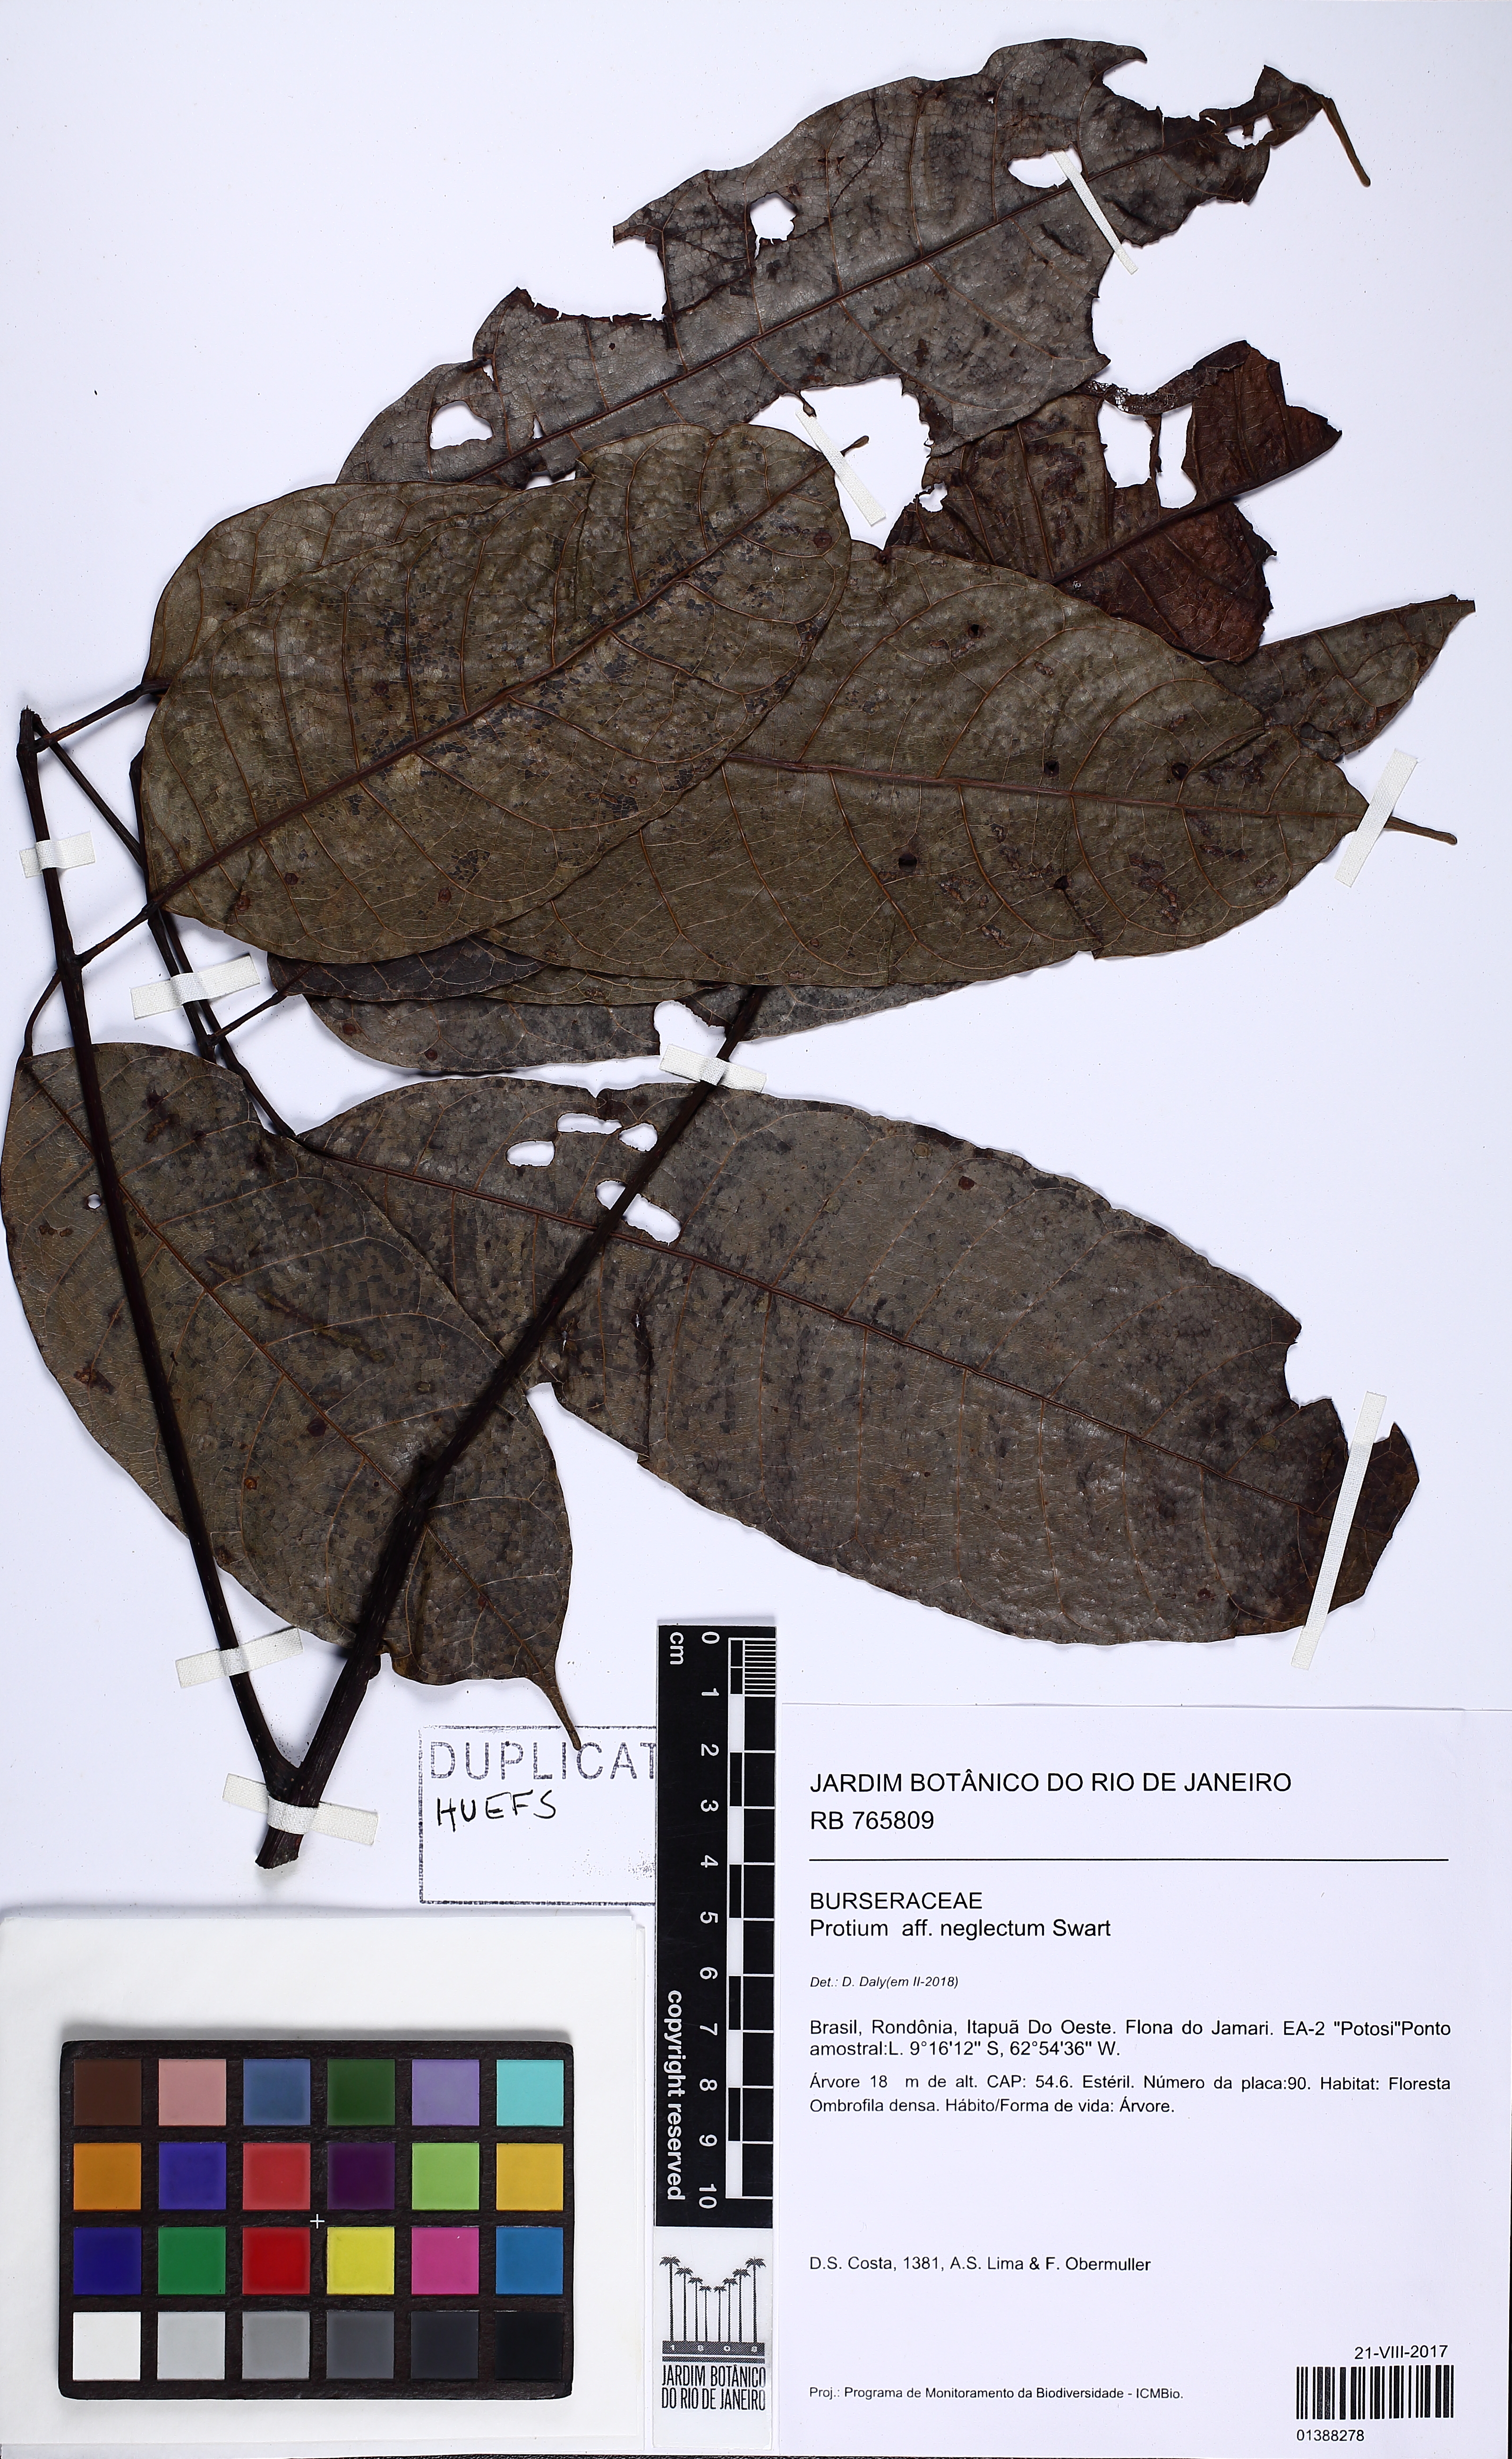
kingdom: Plantae
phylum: Tracheophyta
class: Magnoliopsida
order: Sapindales
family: Burseraceae
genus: Protium
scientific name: Protium tenuifolium
